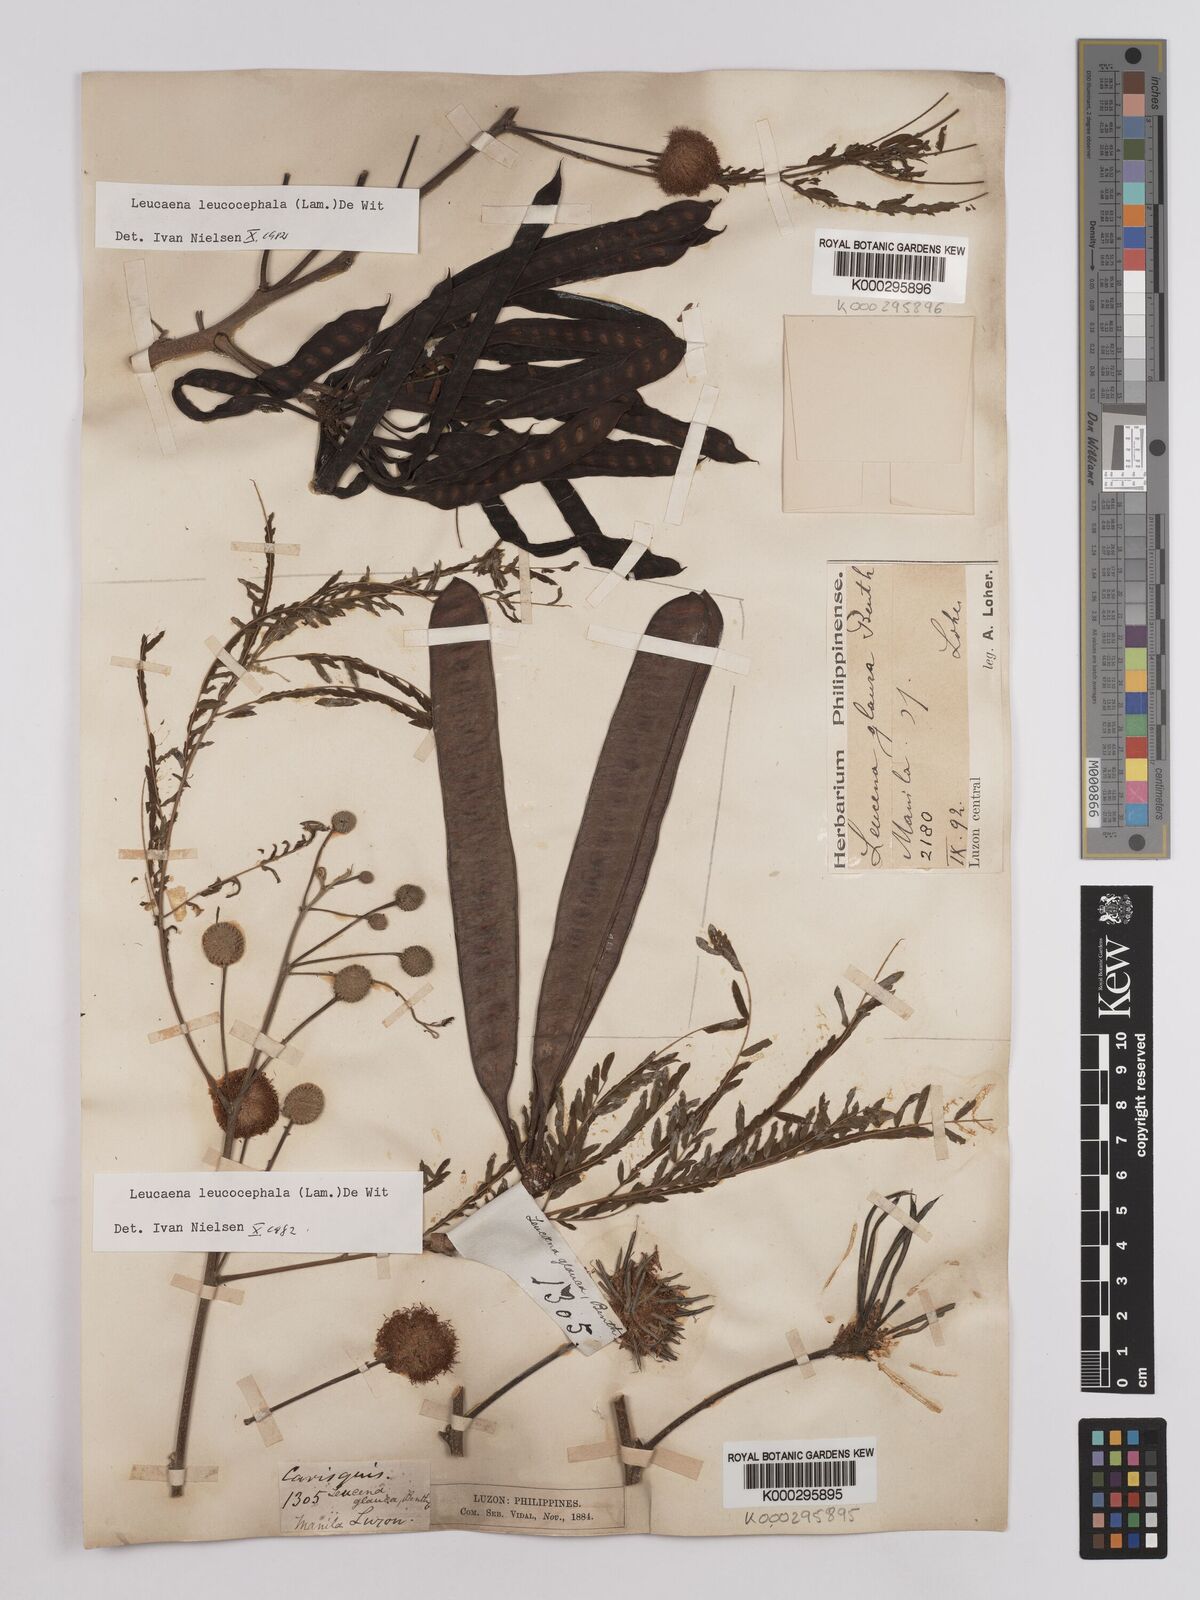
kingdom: Plantae
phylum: Tracheophyta
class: Magnoliopsida
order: Fabales
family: Fabaceae
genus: Leucaena
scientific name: Leucaena leucocephala
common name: White leadtree
